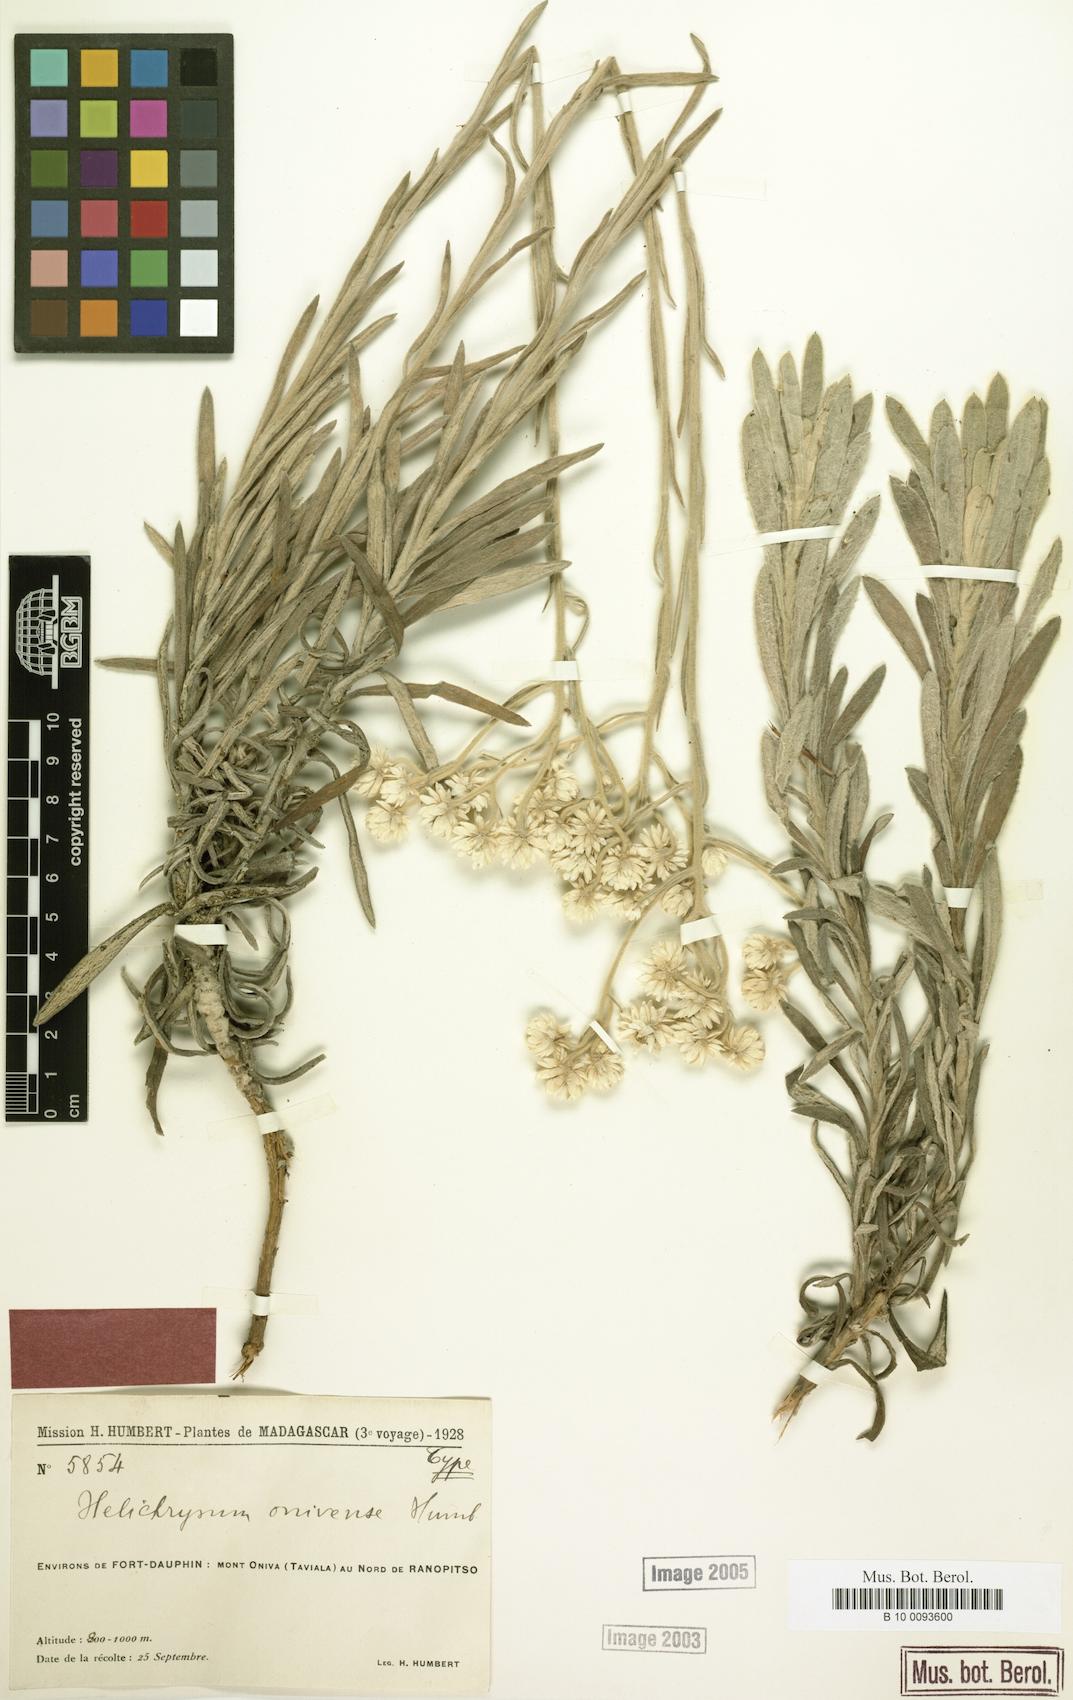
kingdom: Plantae
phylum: Tracheophyta
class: Magnoliopsida
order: Asterales
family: Asteraceae
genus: Helichrysum
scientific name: Helichrysum onivense
